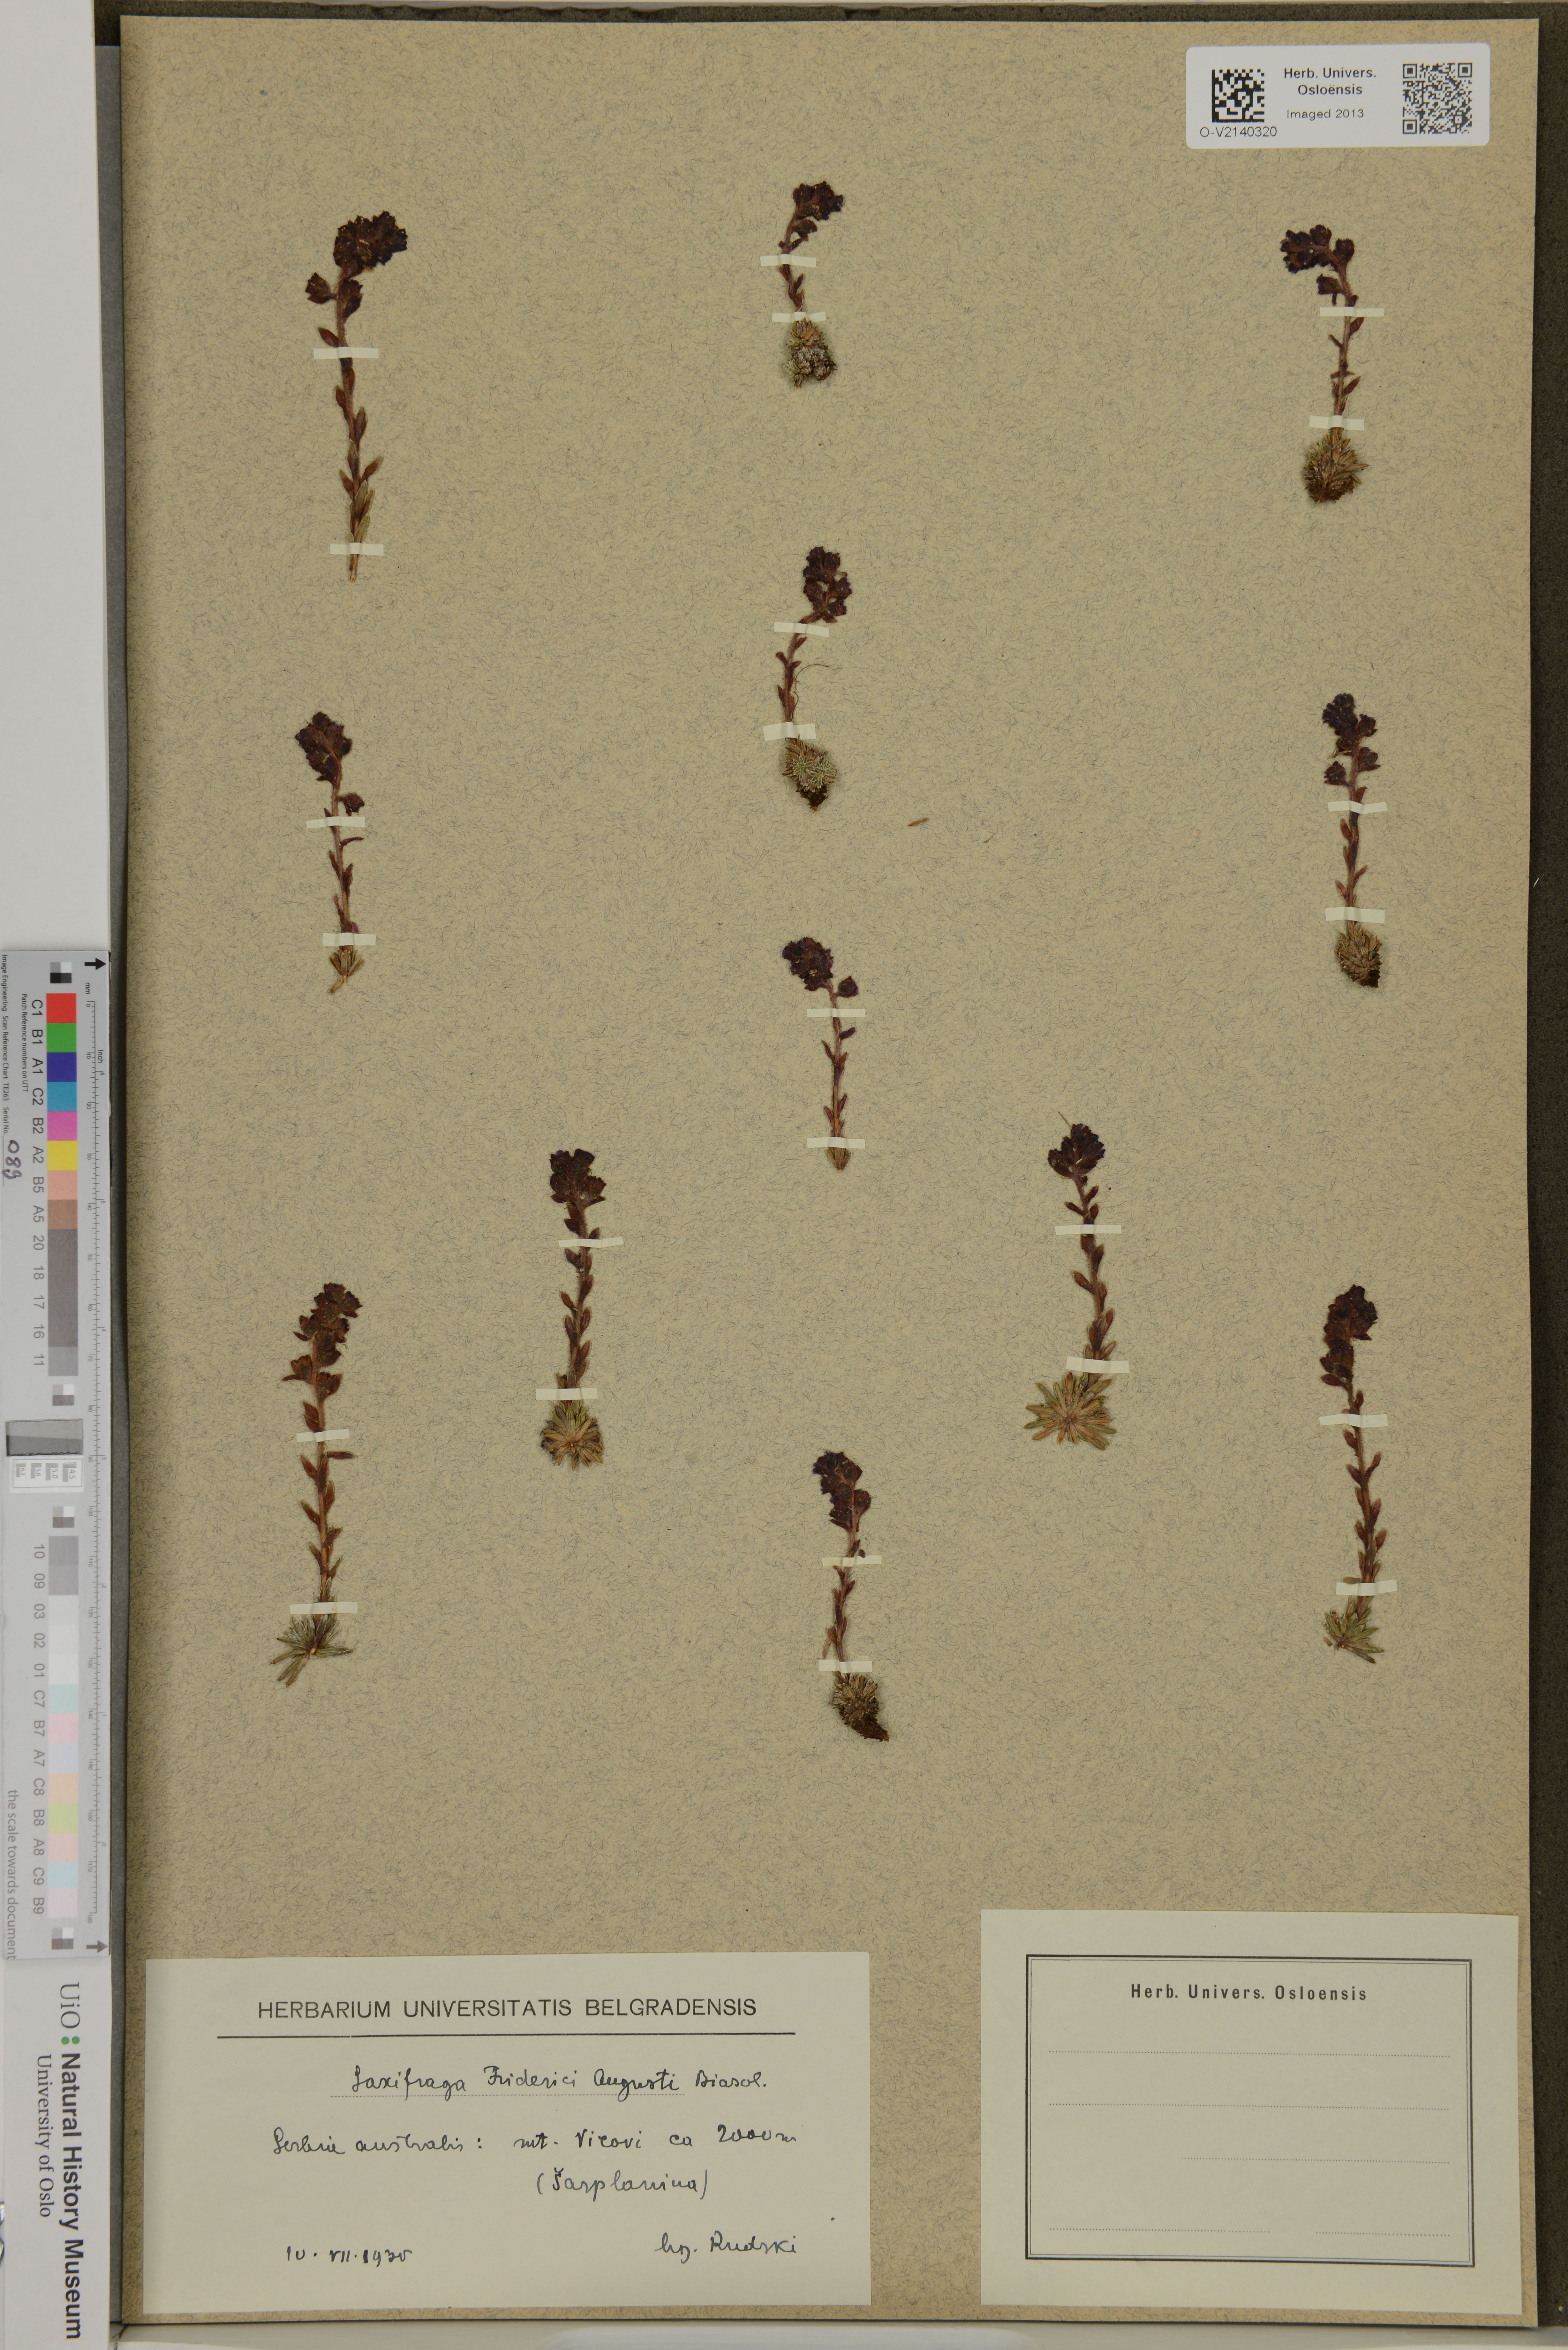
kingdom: Plantae
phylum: Tracheophyta
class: Magnoliopsida
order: Saxifragales
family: Saxifragaceae
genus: Saxifraga
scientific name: Saxifraga federici-augusti
